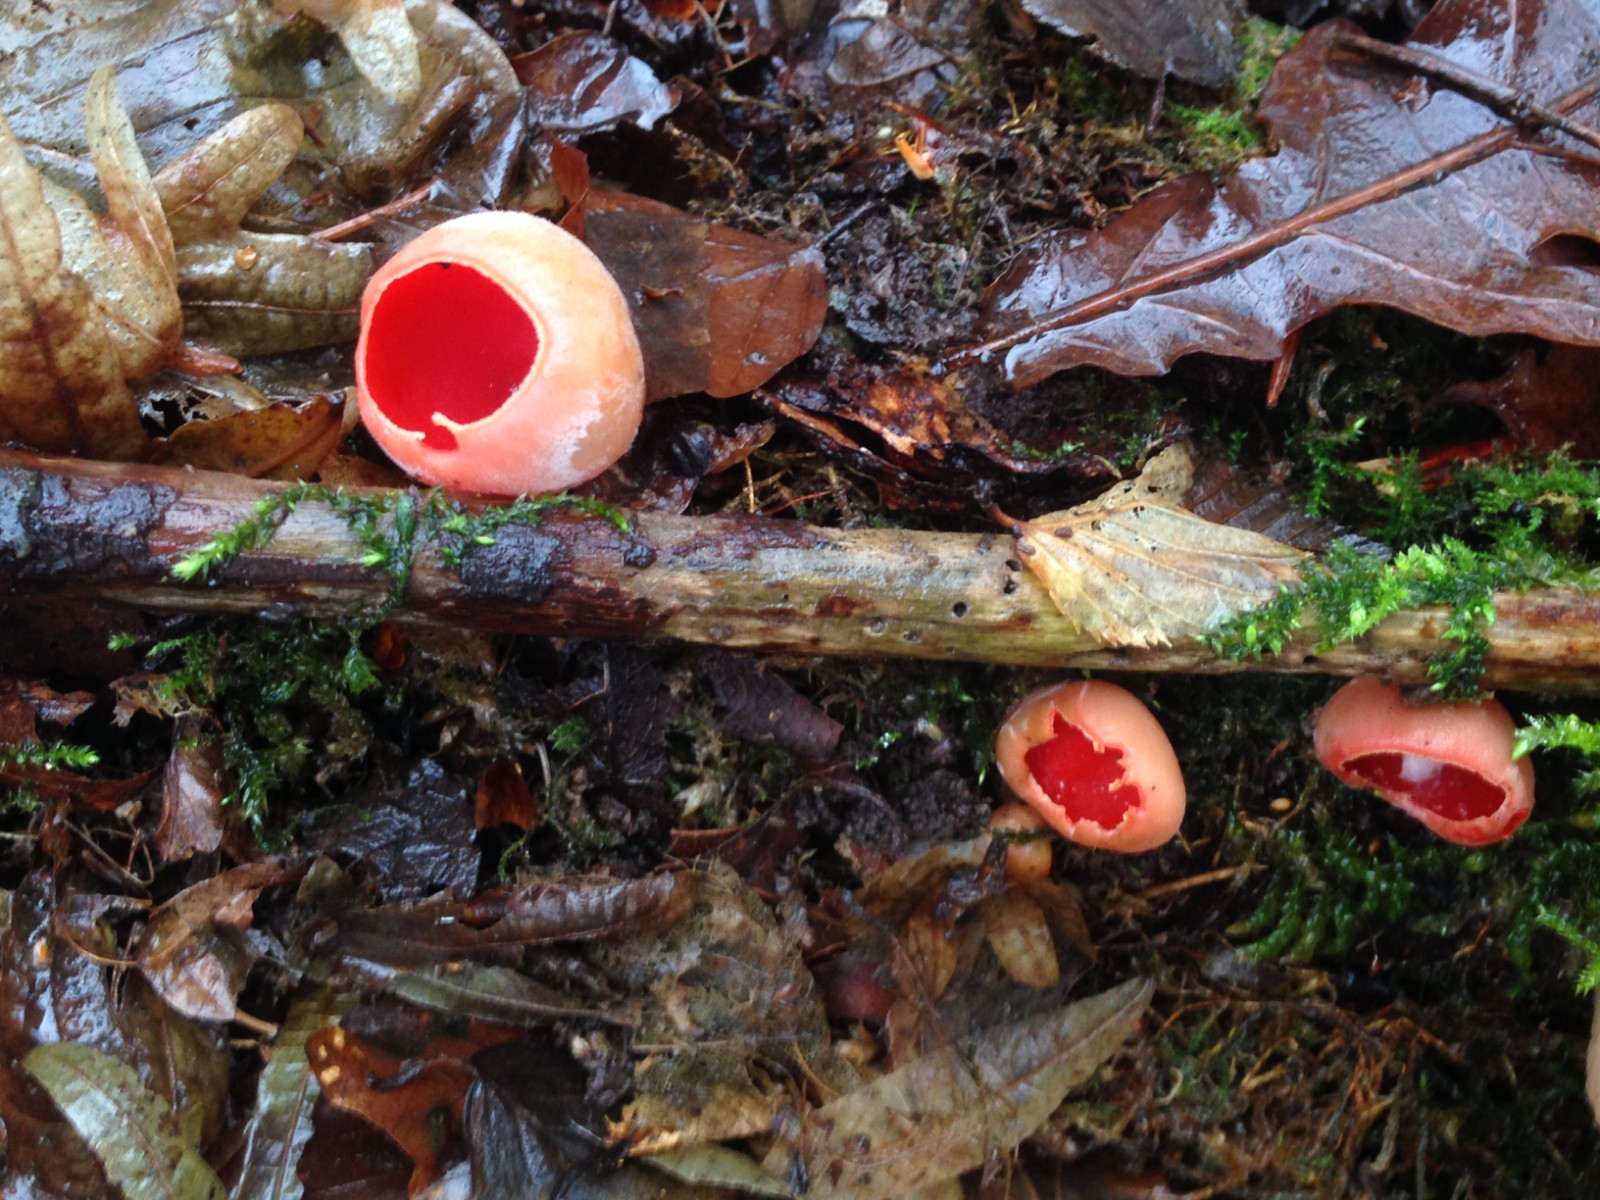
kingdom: Fungi
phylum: Ascomycota
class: Pezizomycetes
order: Pezizales
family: Sarcoscyphaceae
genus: Sarcoscypha
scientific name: Sarcoscypha austriaca
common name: krølhåret pragtbæger
